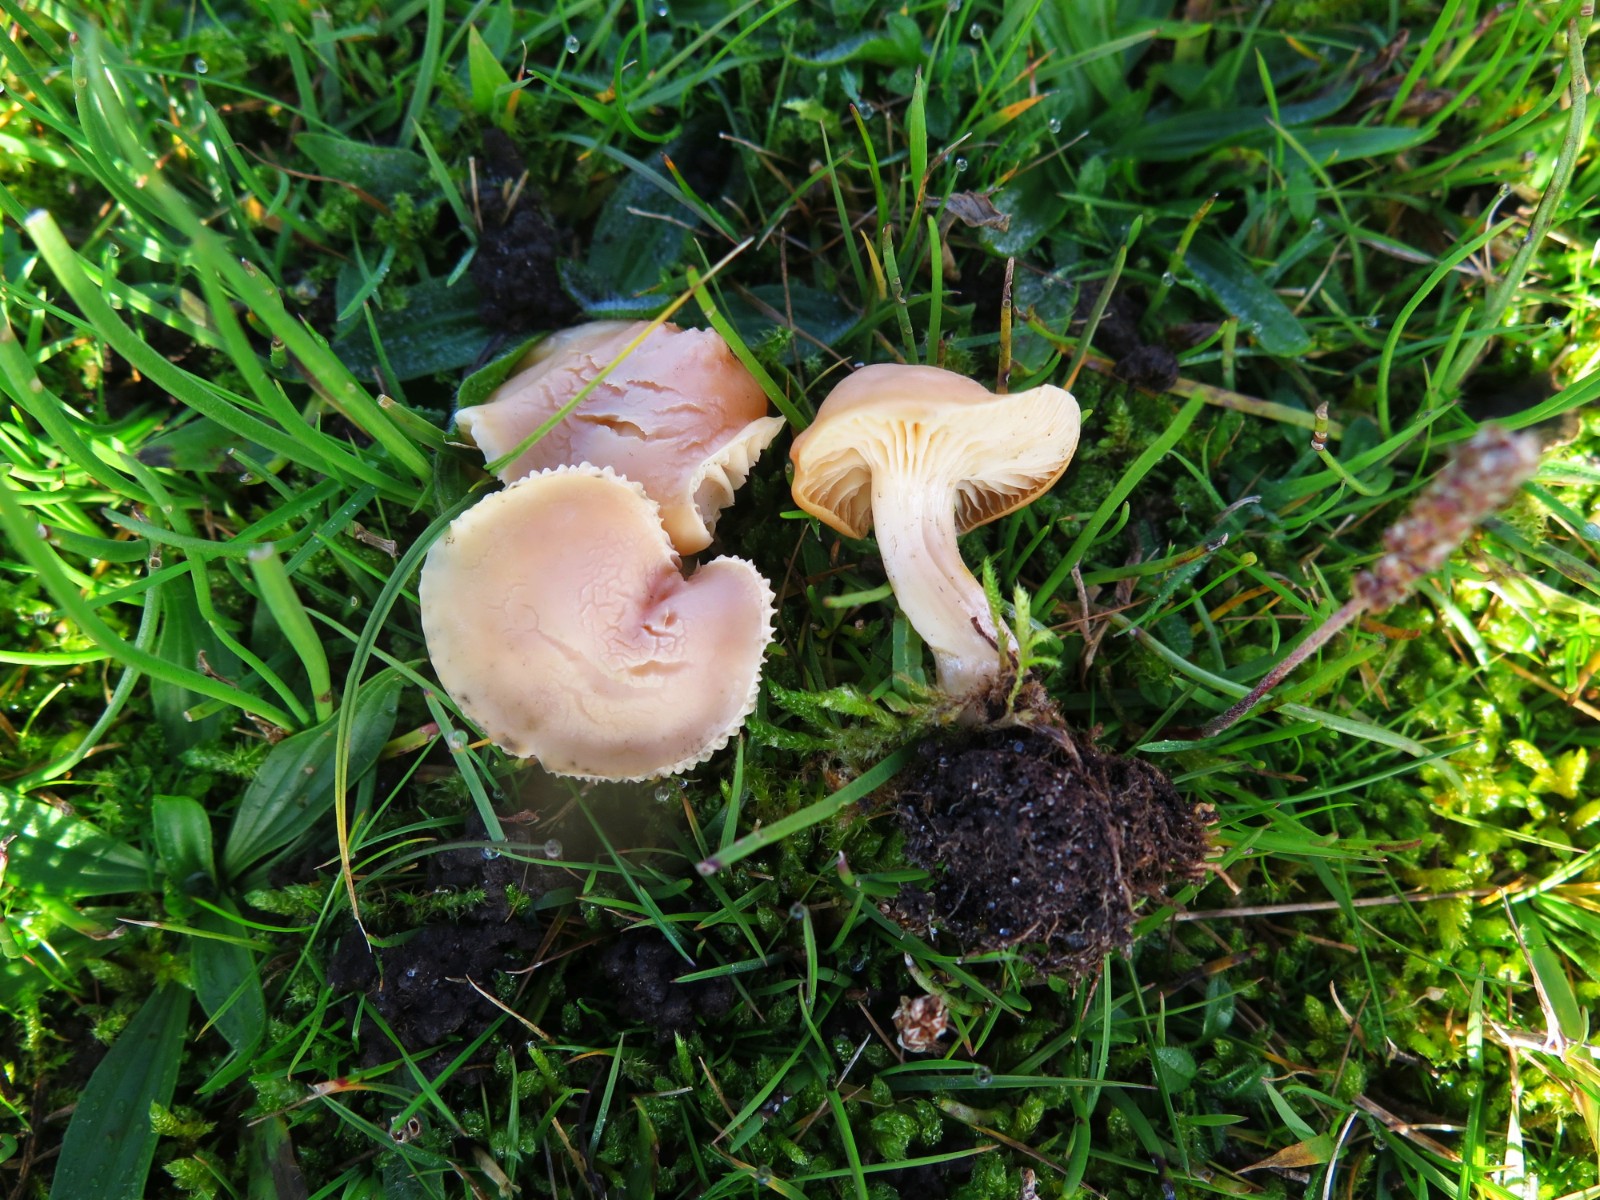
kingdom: Fungi
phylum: Basidiomycota
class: Agaricomycetes
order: Agaricales
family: Hygrophoraceae
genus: Cuphophyllus
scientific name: Cuphophyllus pratensis
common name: eng-vokshat
